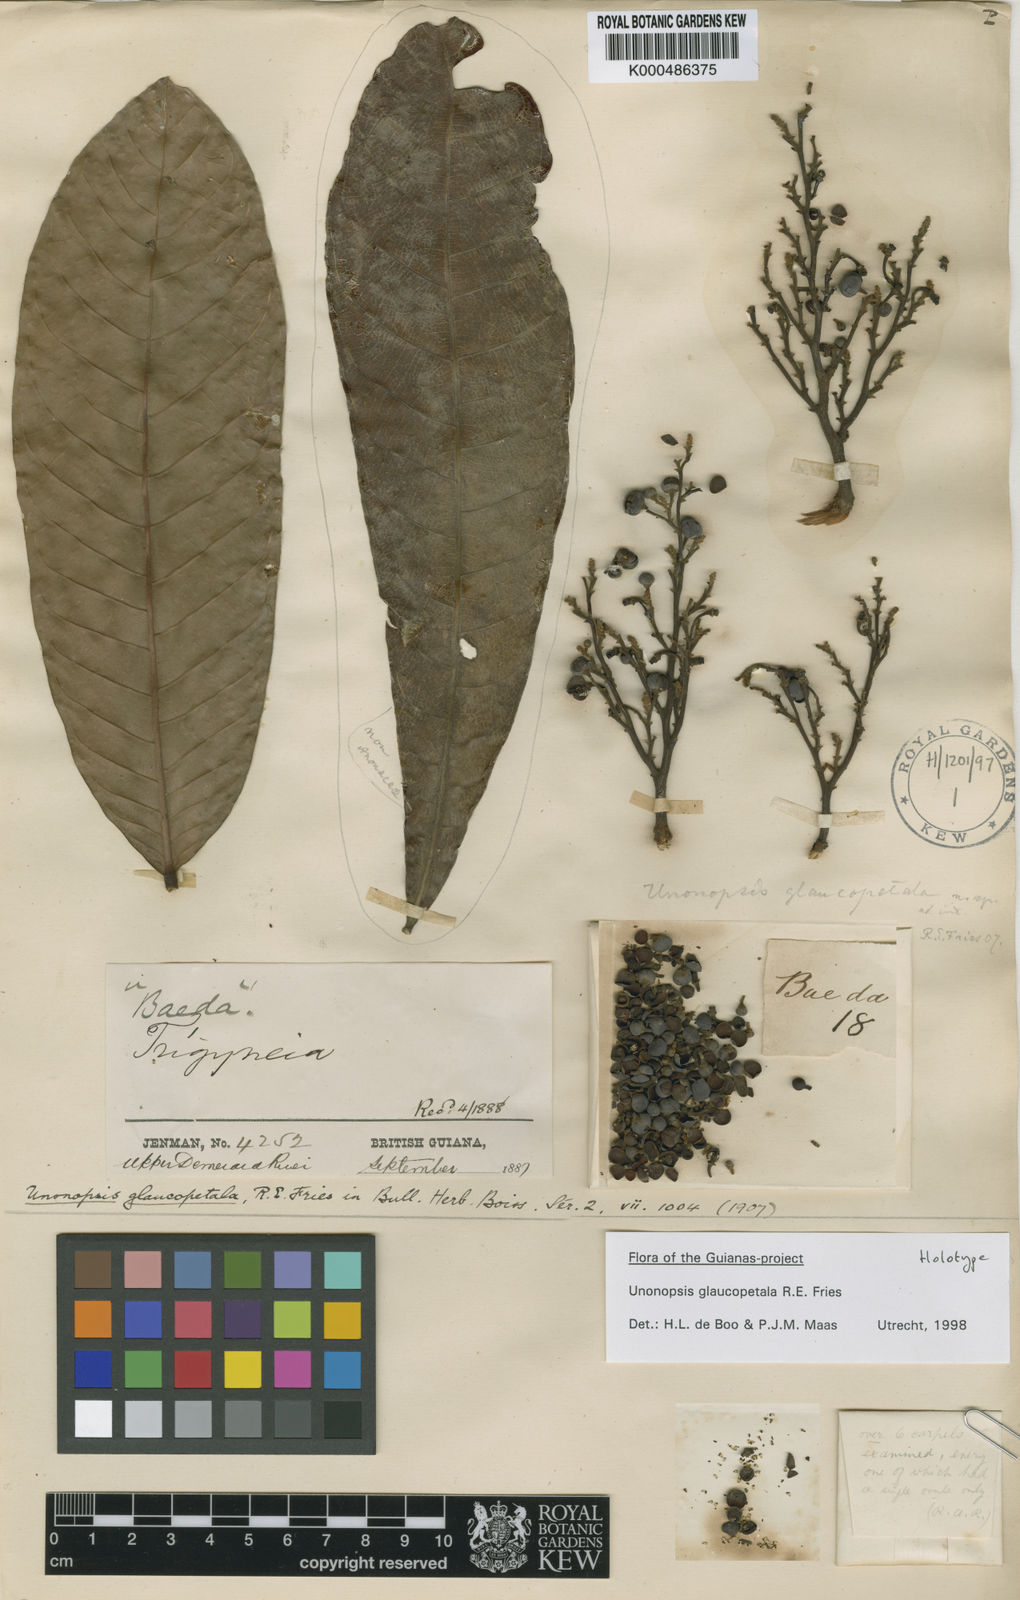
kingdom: Plantae
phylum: Tracheophyta
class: Magnoliopsida
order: Magnoliales
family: Annonaceae
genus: Unonopsis
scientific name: Unonopsis glaucopetala
